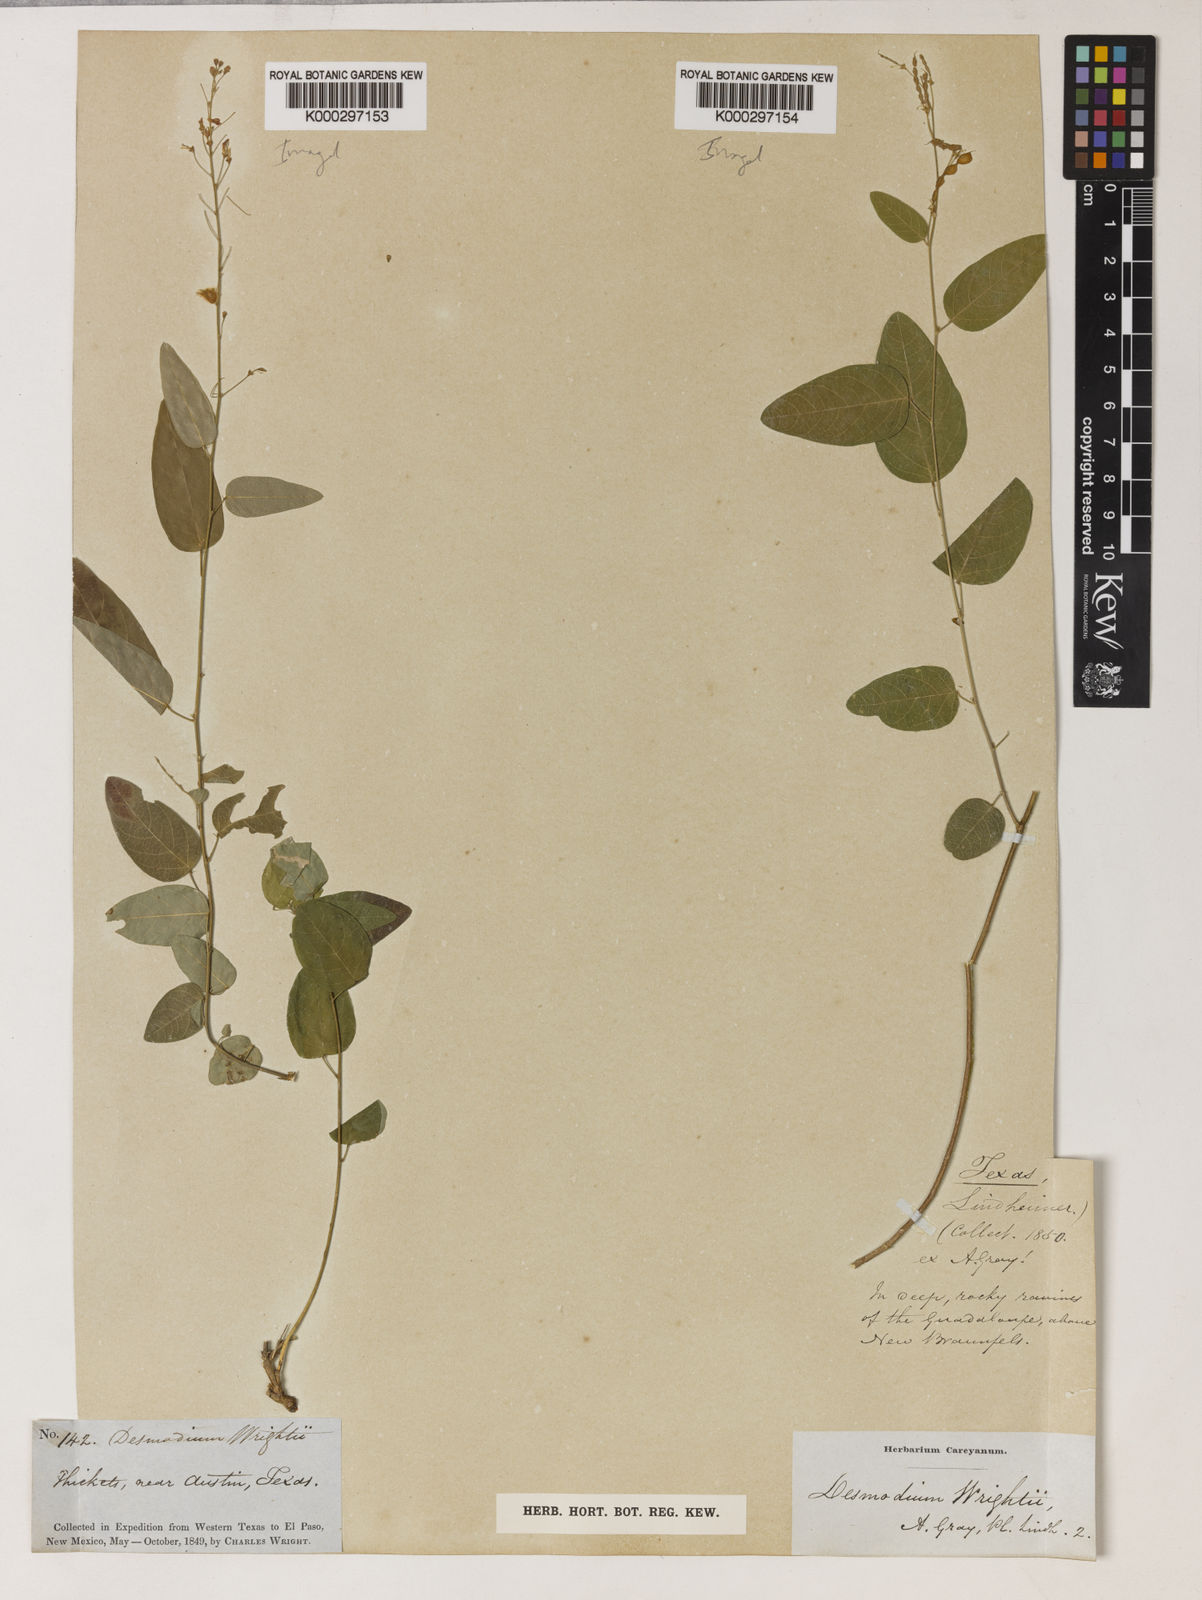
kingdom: Plantae
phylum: Tracheophyta
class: Magnoliopsida
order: Fabales
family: Fabaceae
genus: Desmodium
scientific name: Desmodium psilophyllum
